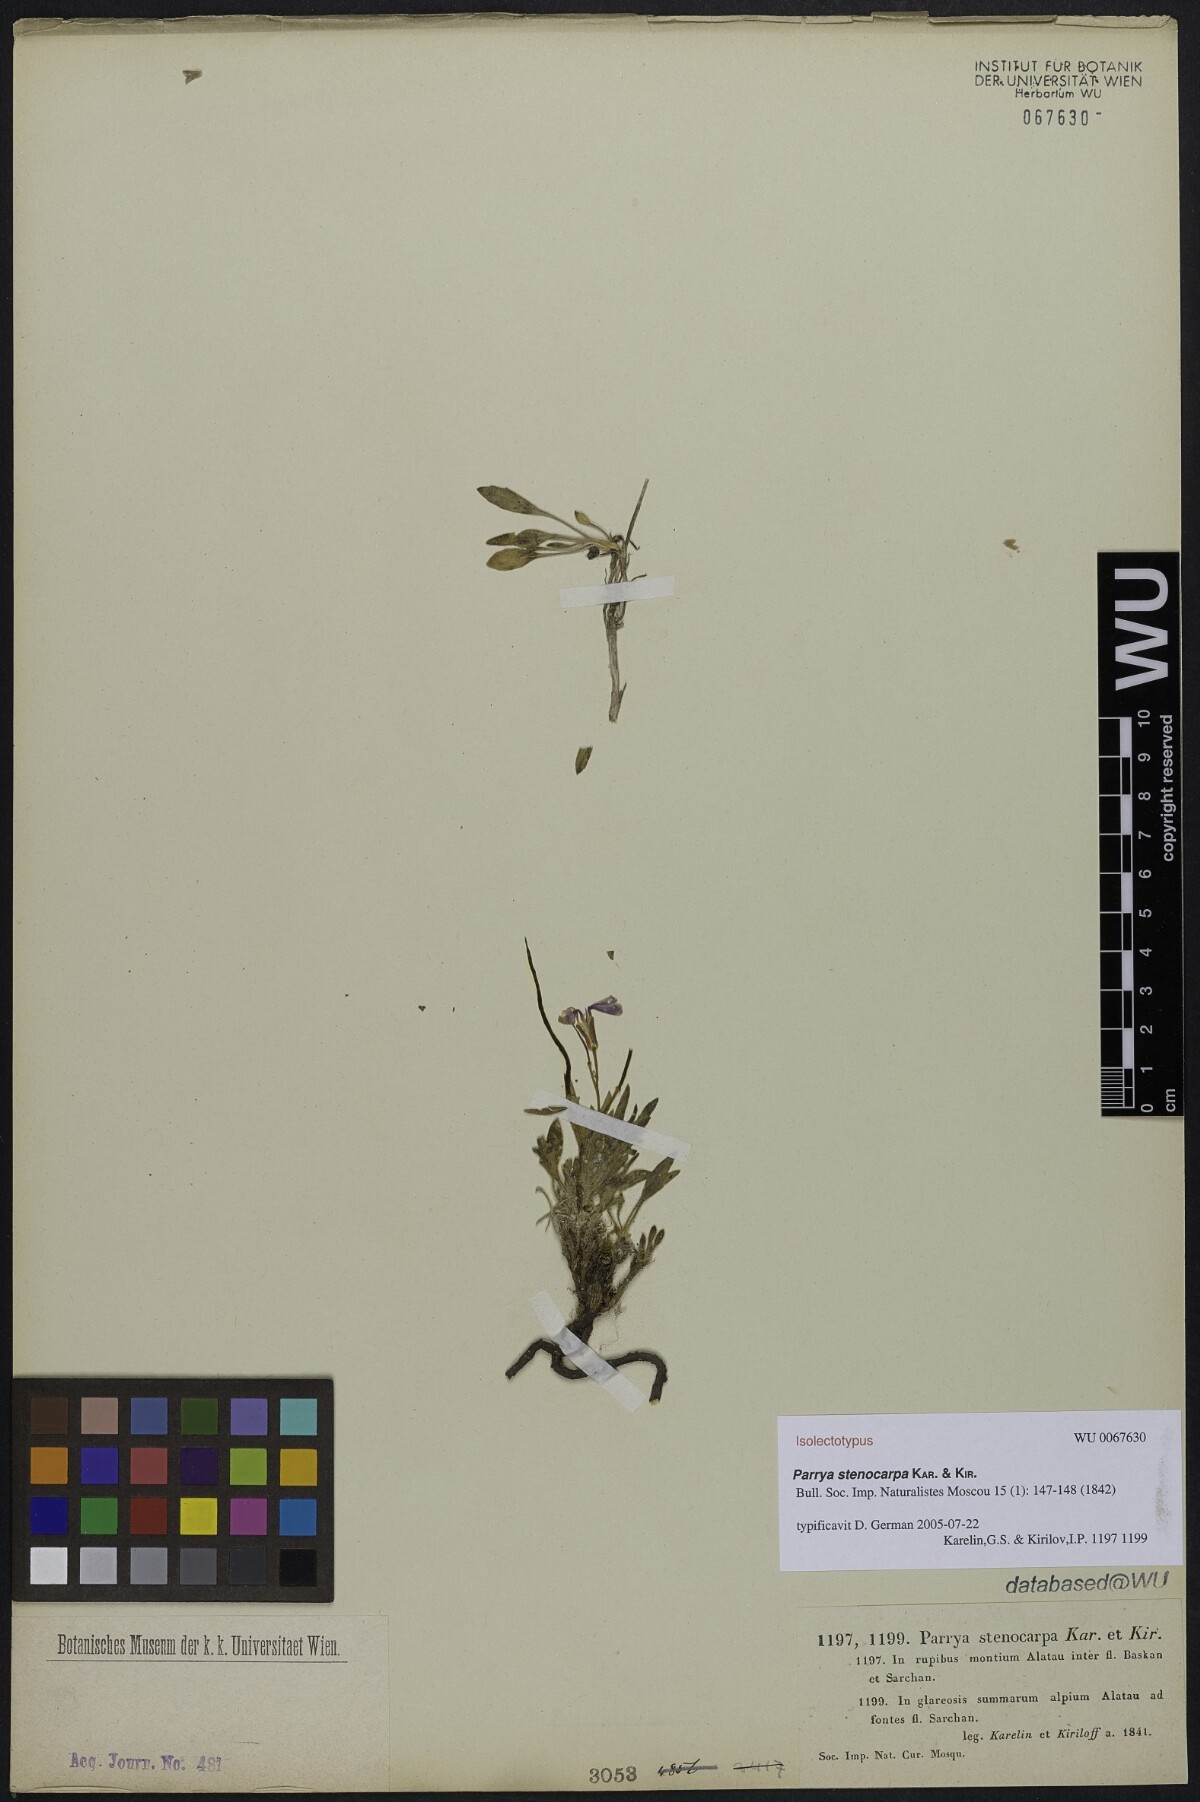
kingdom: Plantae
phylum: Tracheophyta
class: Magnoliopsida
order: Brassicales
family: Brassicaceae
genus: Parrya
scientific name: Parrya stenocarpa
